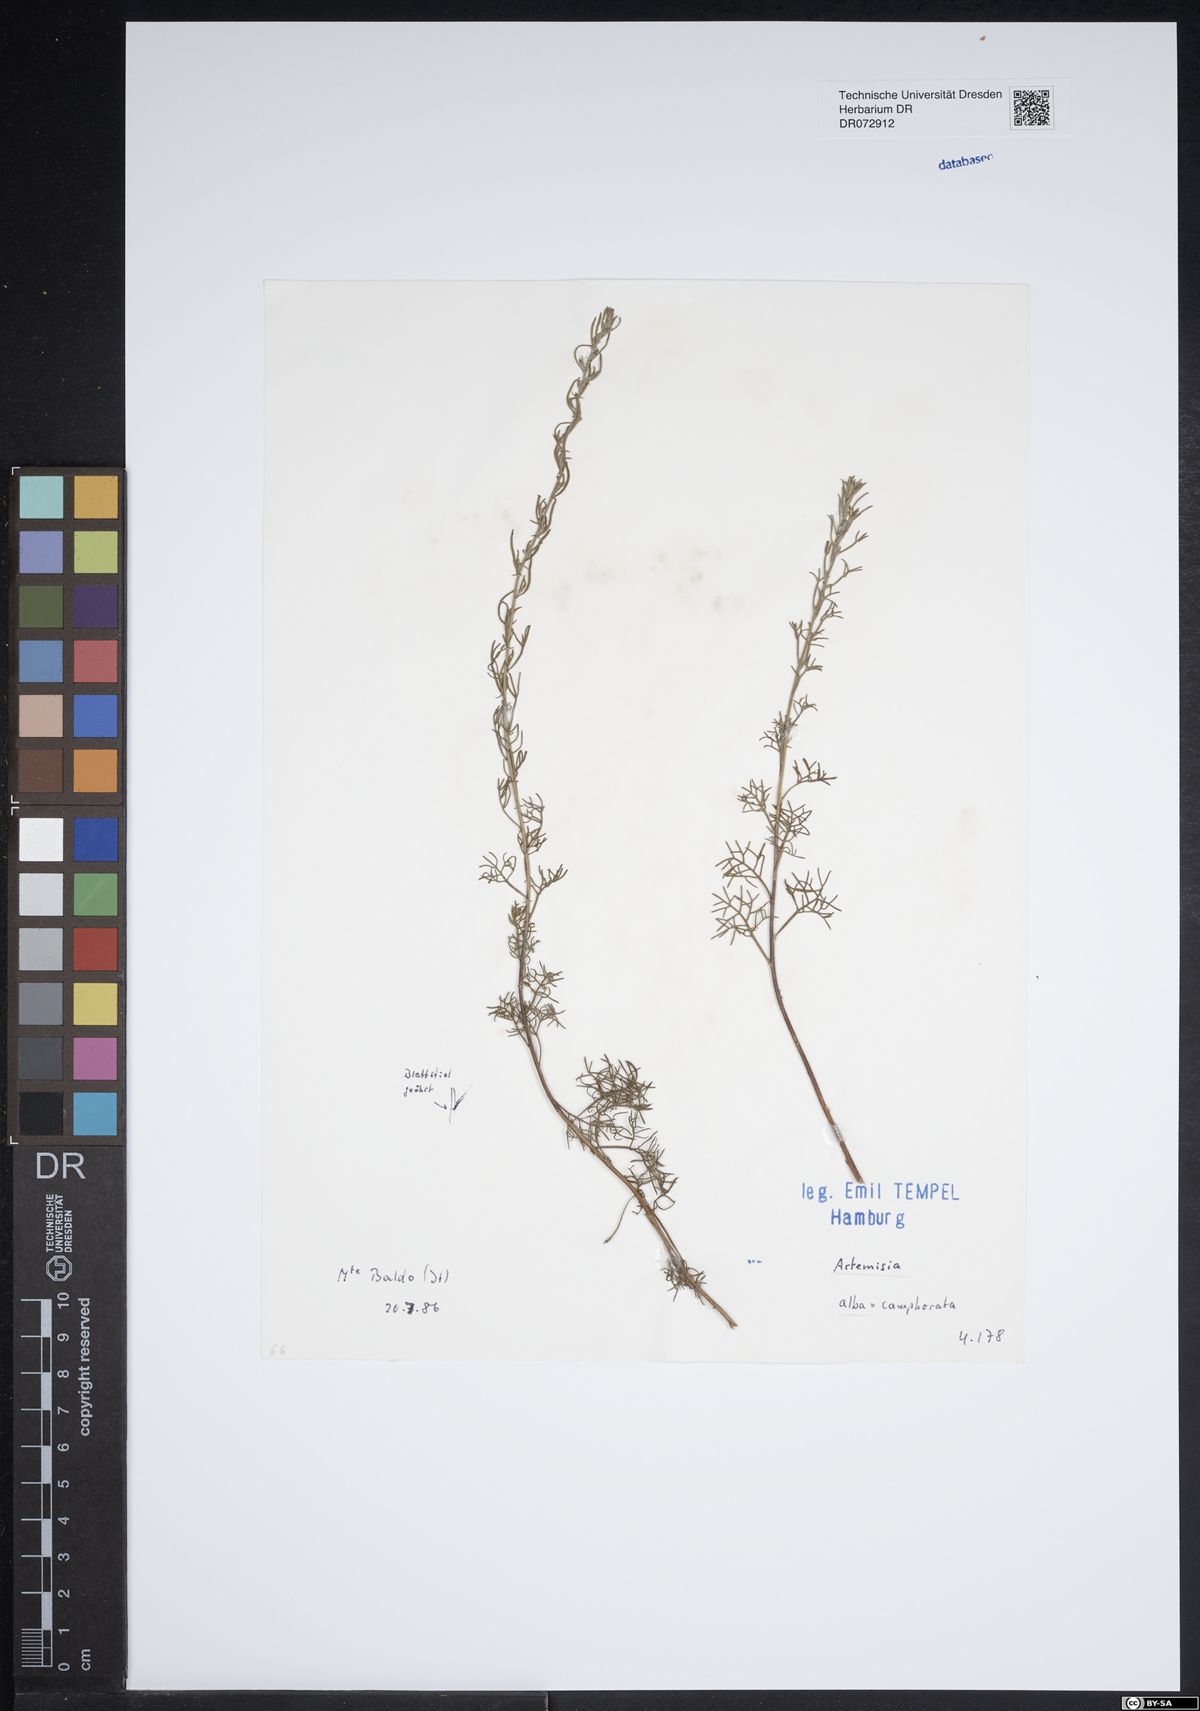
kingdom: Plantae
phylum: Tracheophyta
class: Magnoliopsida
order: Asterales
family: Asteraceae
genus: Artemisia
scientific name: Artemisia alba
